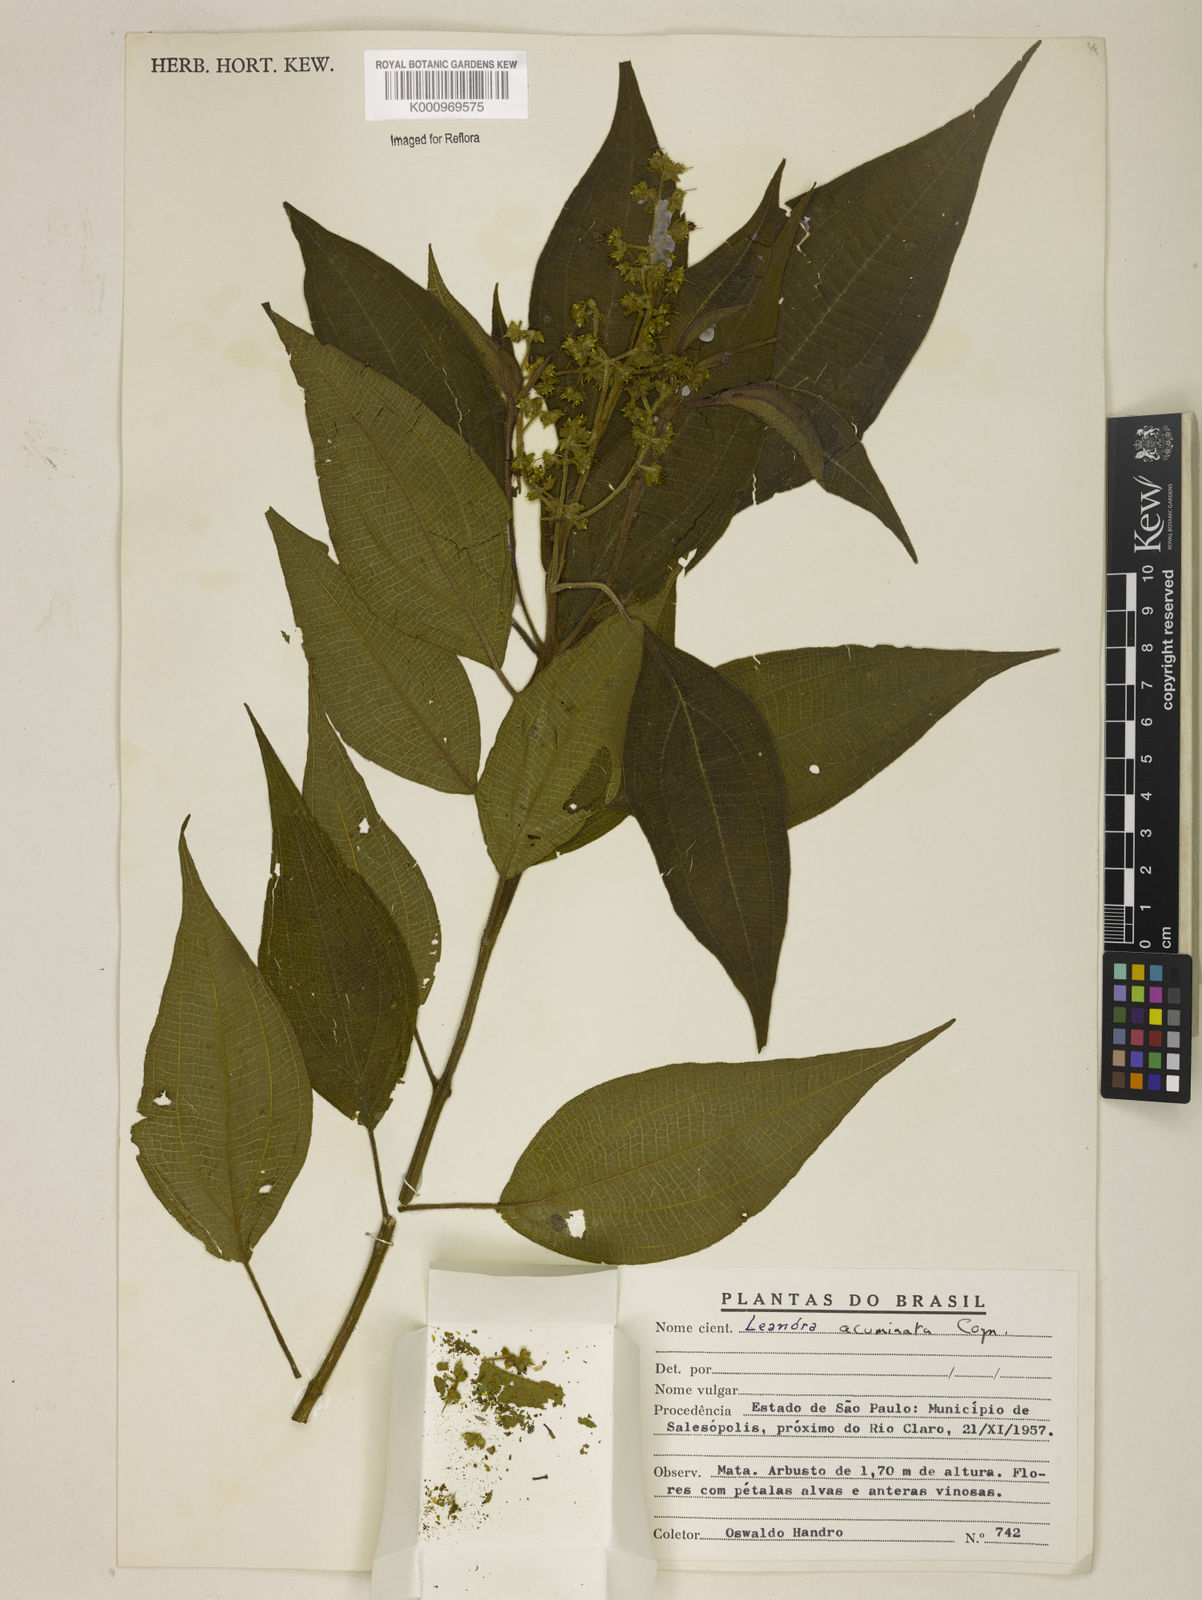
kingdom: Plantae
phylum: Tracheophyta
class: Magnoliopsida
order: Myrtales
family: Melastomataceae
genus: Miconia
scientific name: Miconia leacuminata
